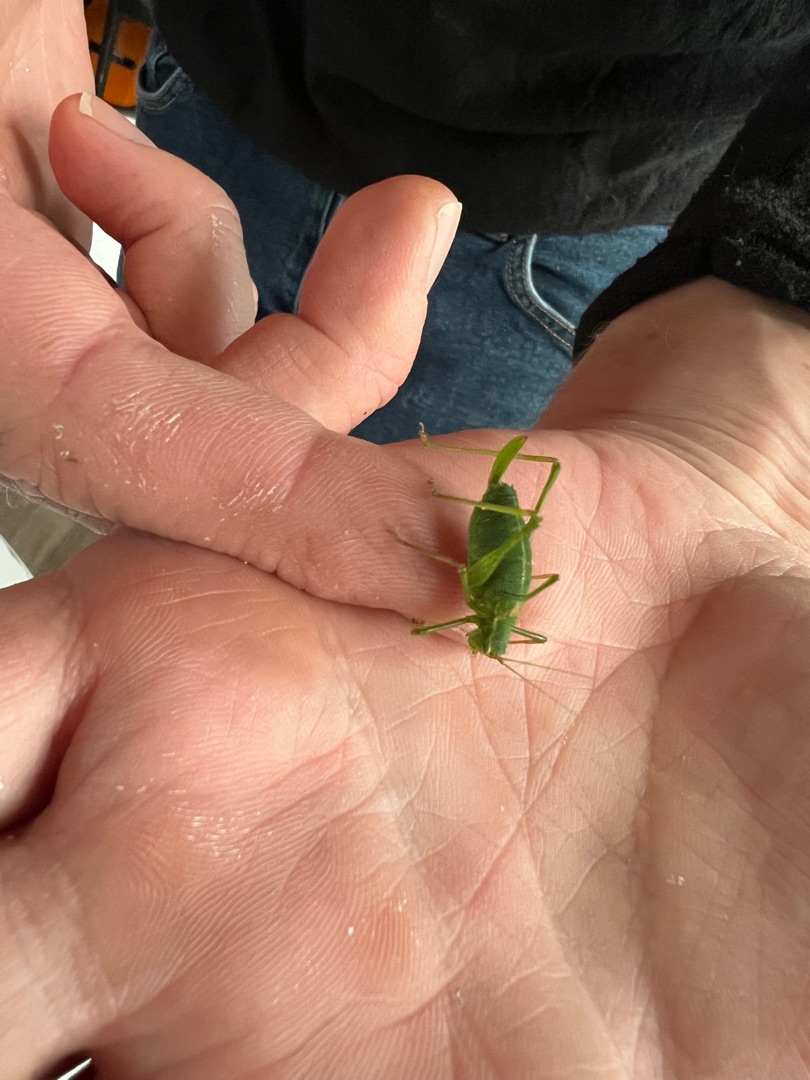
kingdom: Animalia
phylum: Arthropoda
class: Insecta
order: Orthoptera
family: Tettigoniidae
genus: Leptophyes
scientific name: Leptophyes punctatissima
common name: Krumknivgræshoppe
